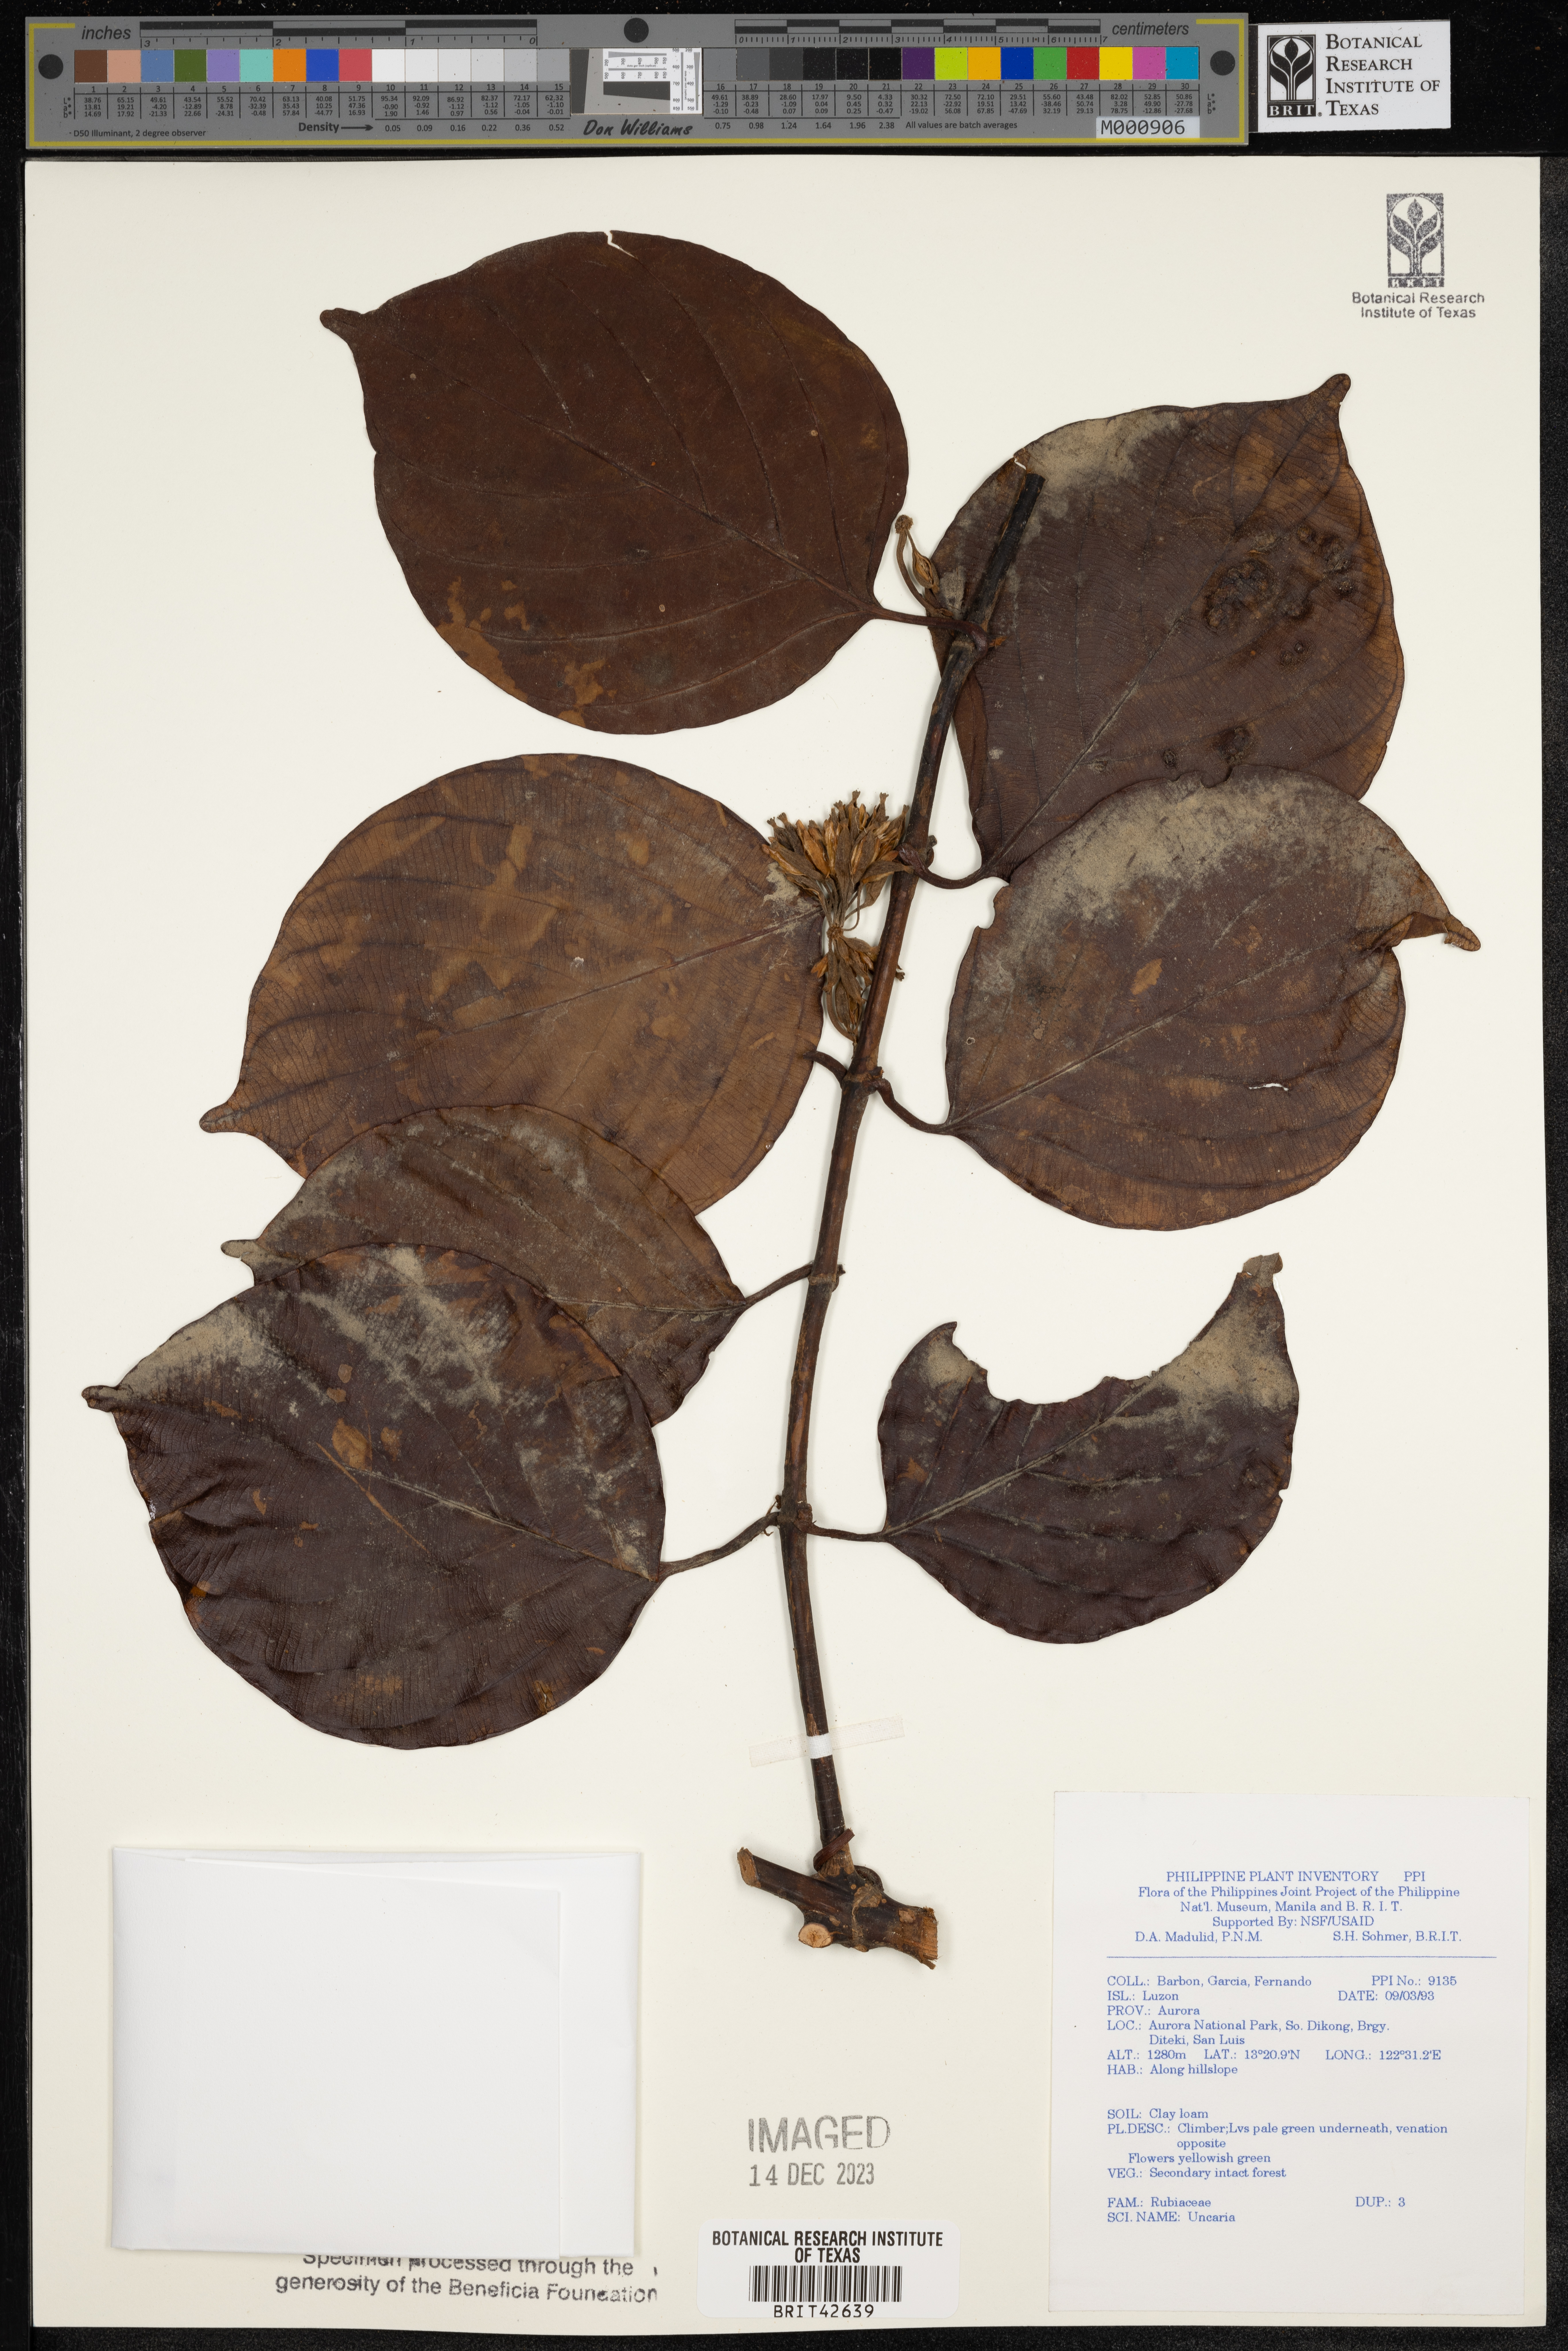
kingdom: Plantae
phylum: Tracheophyta
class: Magnoliopsida
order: Gentianales
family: Rubiaceae
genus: Uncaria
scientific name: Uncaria
